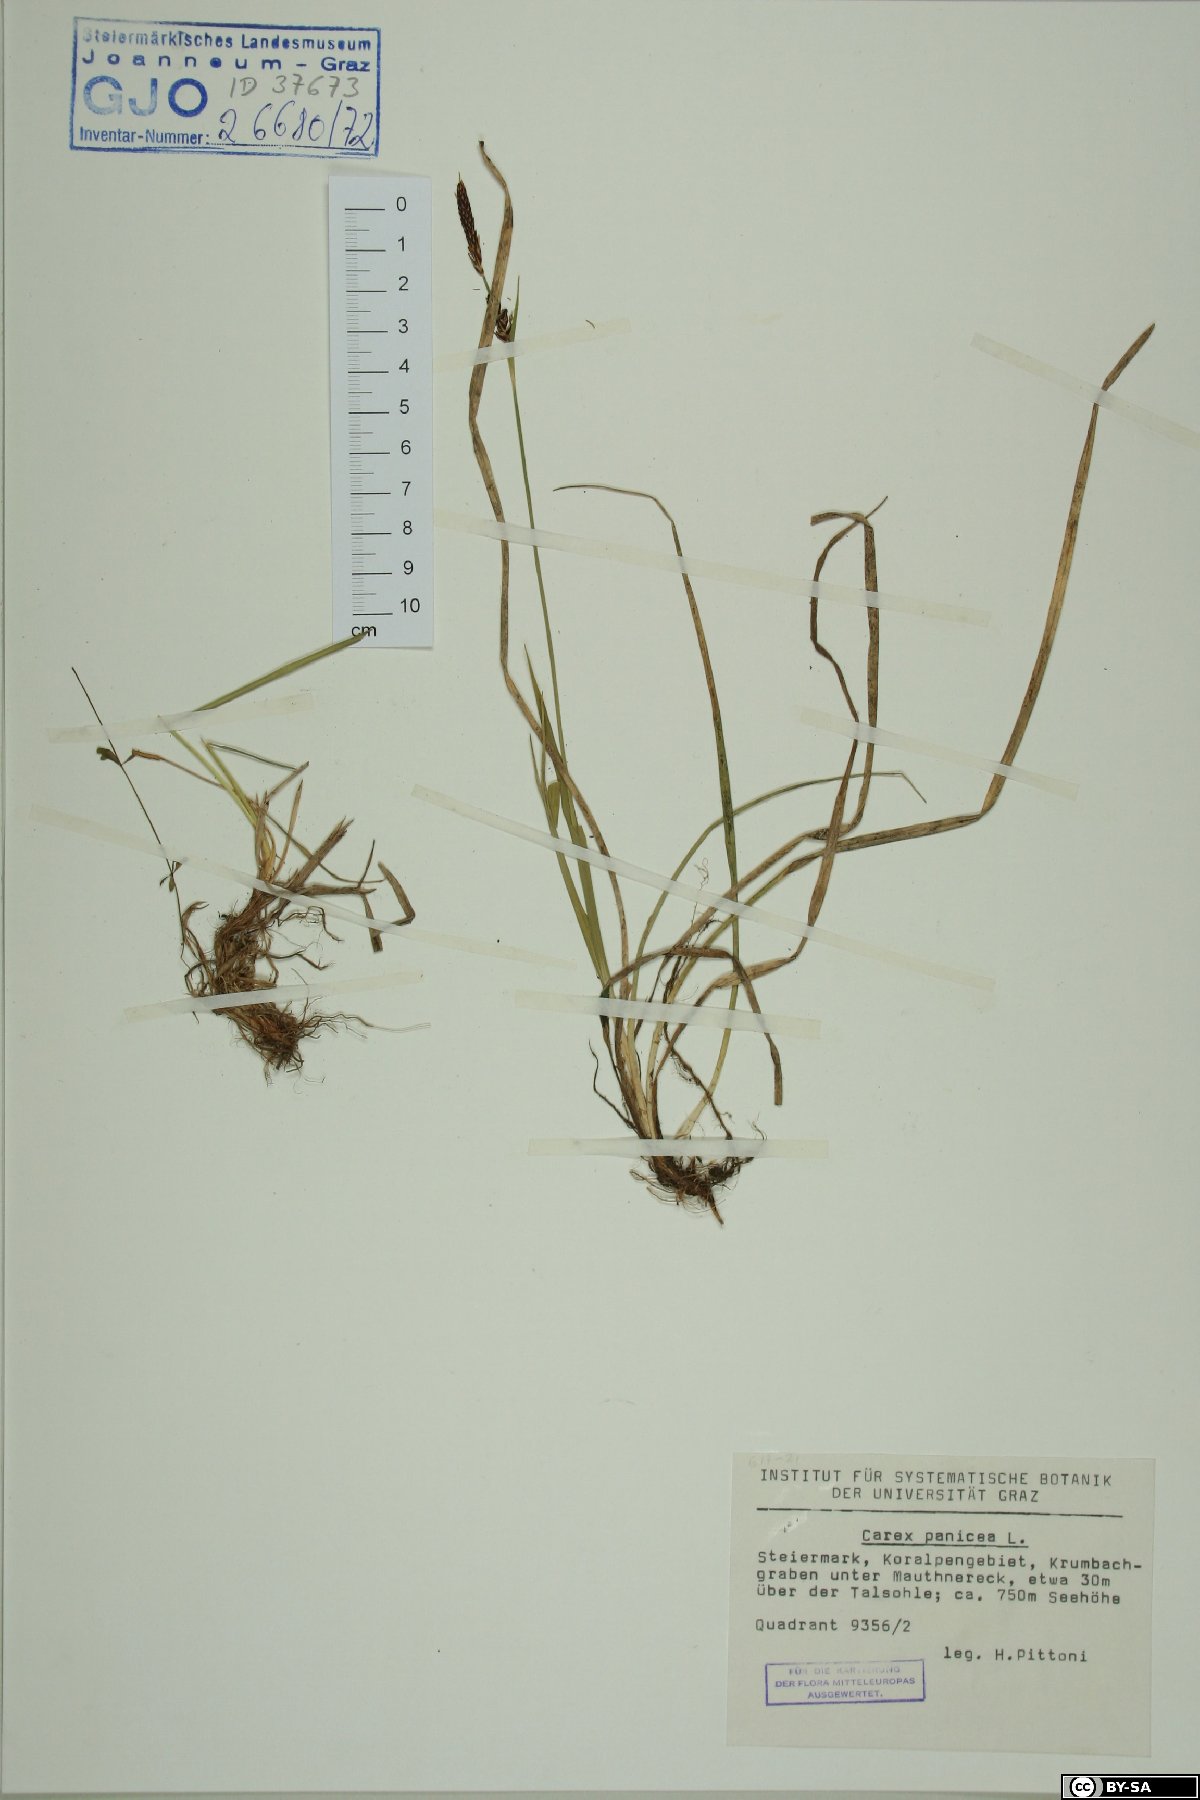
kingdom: Plantae
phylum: Tracheophyta
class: Liliopsida
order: Poales
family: Cyperaceae
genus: Carex
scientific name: Carex panicea
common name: Carnation sedge
